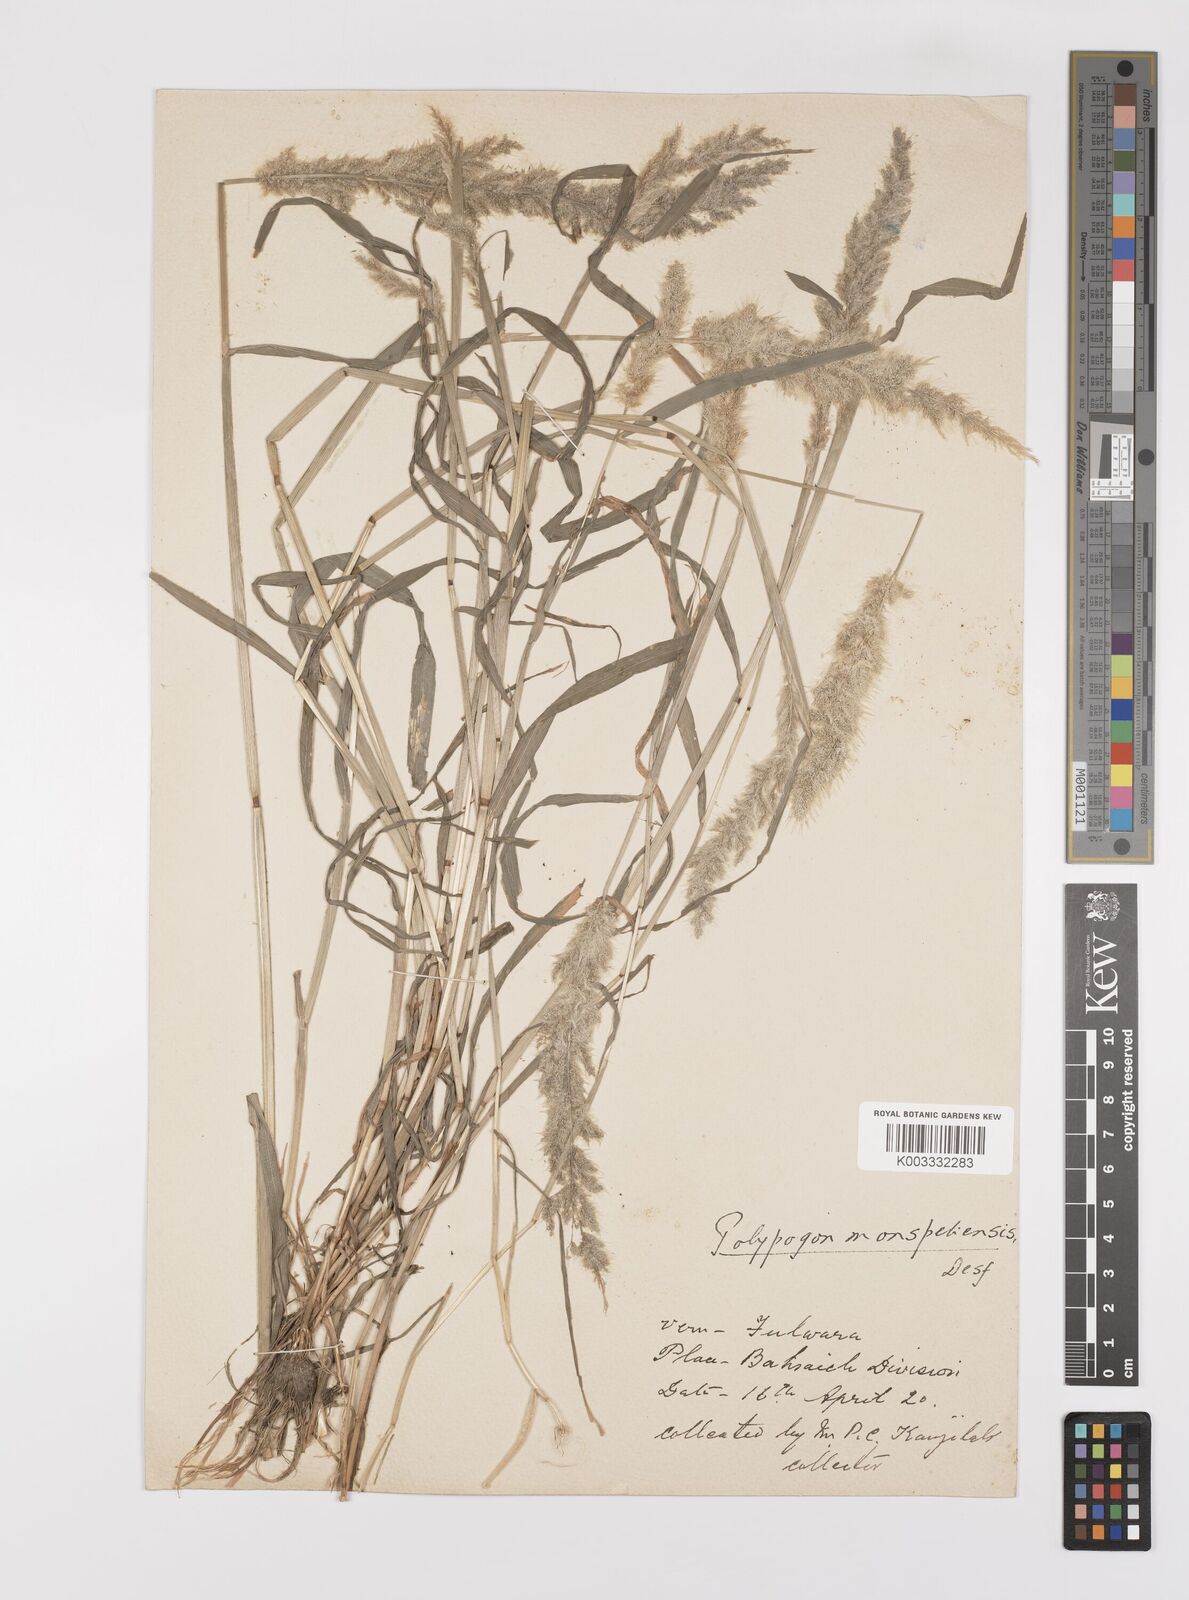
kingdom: Plantae
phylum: Tracheophyta
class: Liliopsida
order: Poales
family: Poaceae
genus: Polypogon
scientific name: Polypogon monspeliensis
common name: Annual rabbitsfoot grass
